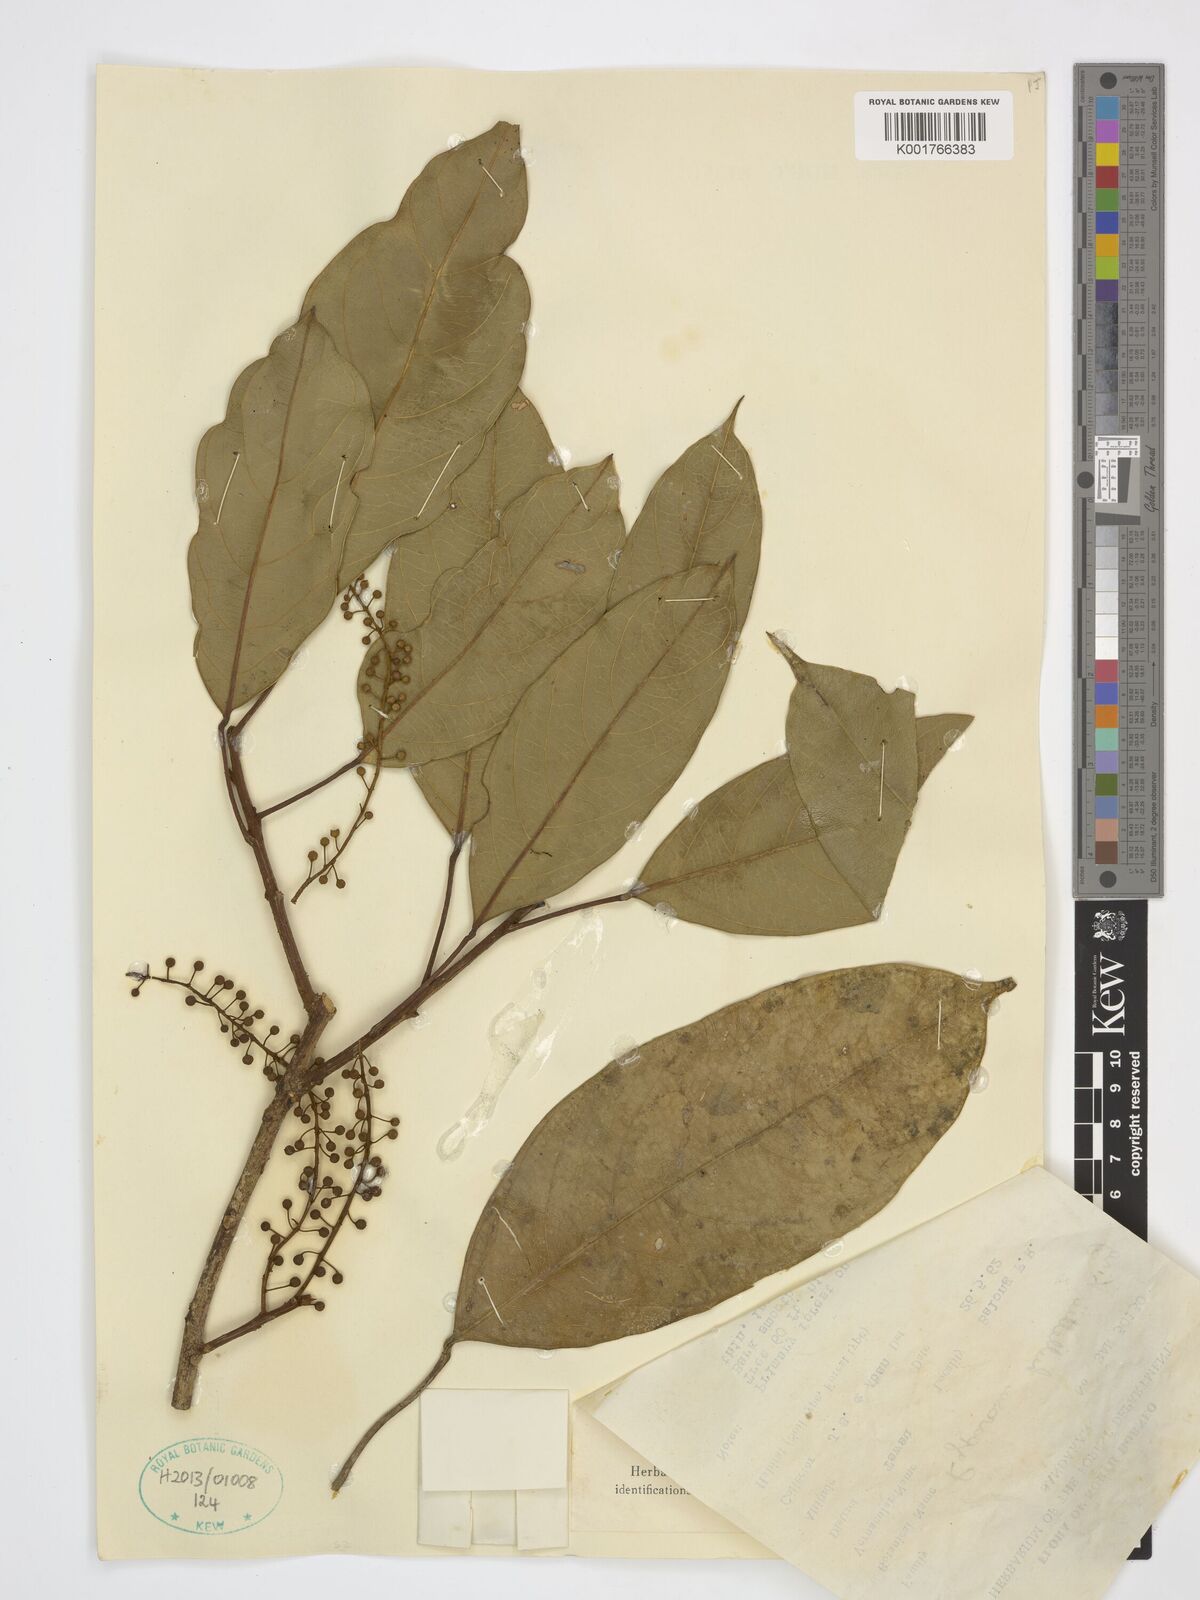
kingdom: Plantae
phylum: Tracheophyta
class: Magnoliopsida
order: Malpighiales
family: Achariaceae
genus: Ryparosa
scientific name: Ryparosa hullettii
